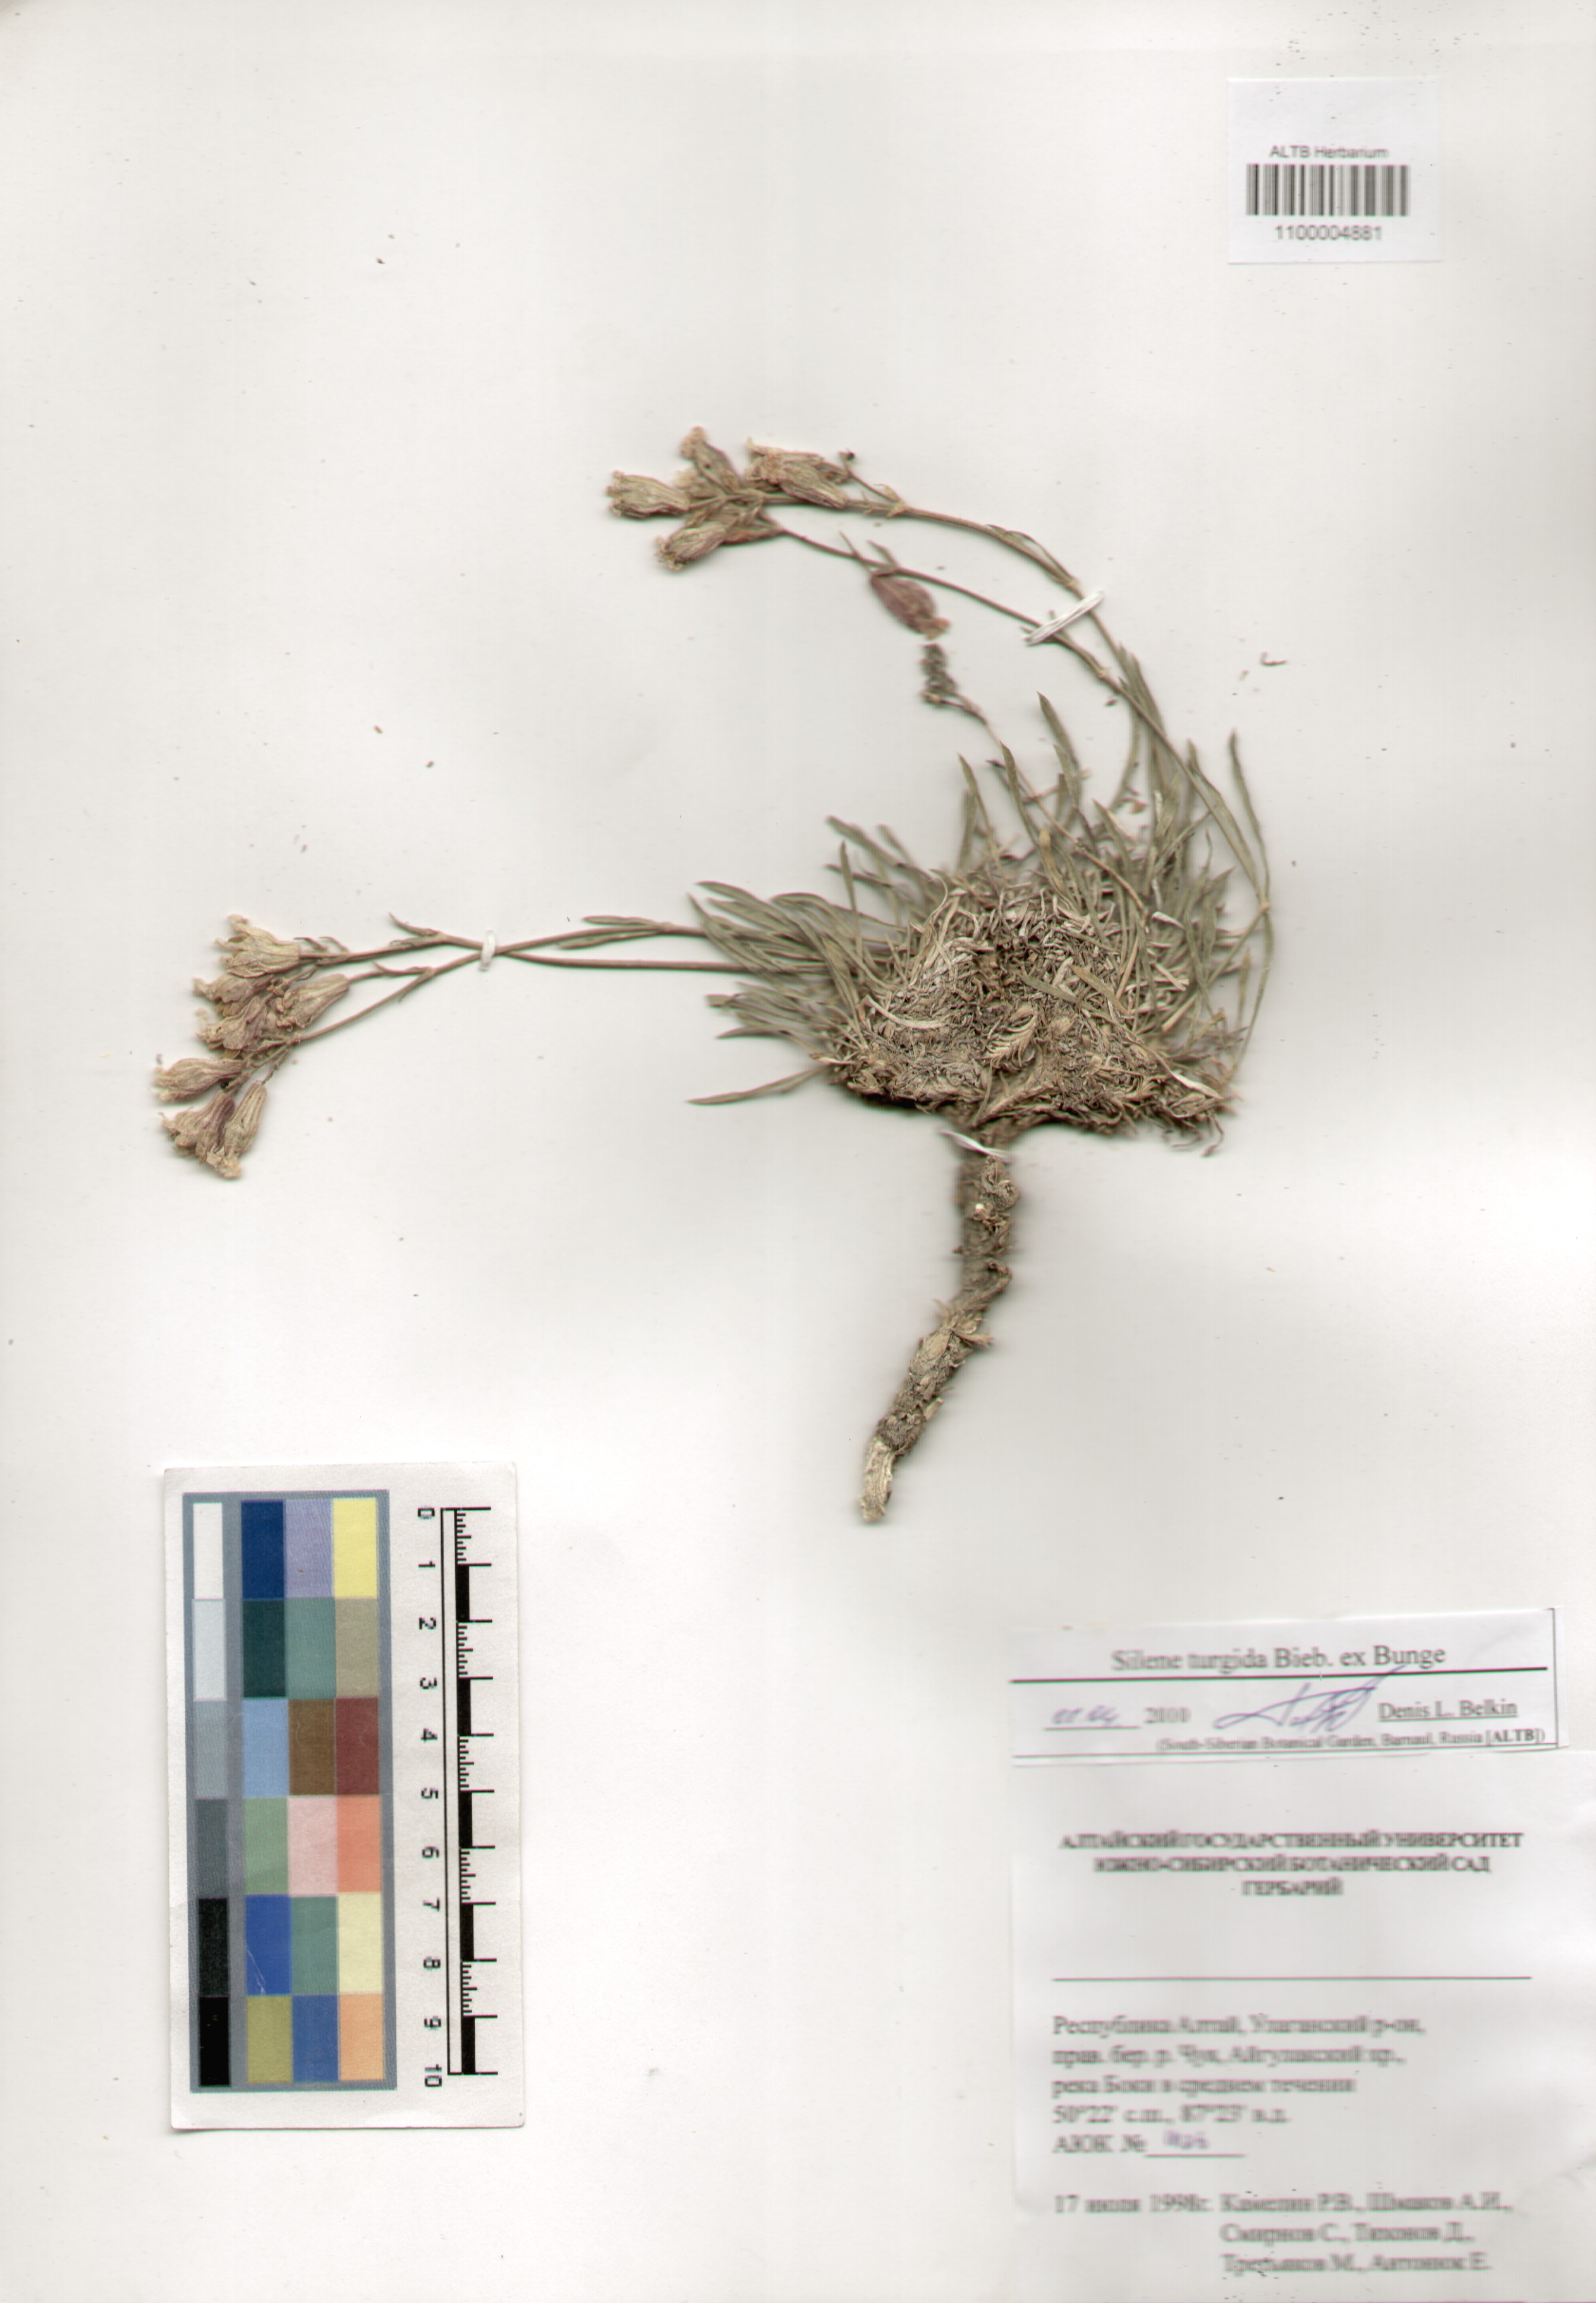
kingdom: Plantae
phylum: Tracheophyta
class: Magnoliopsida
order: Caryophyllales
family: Caryophyllaceae
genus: Silene
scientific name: Silene turgida
